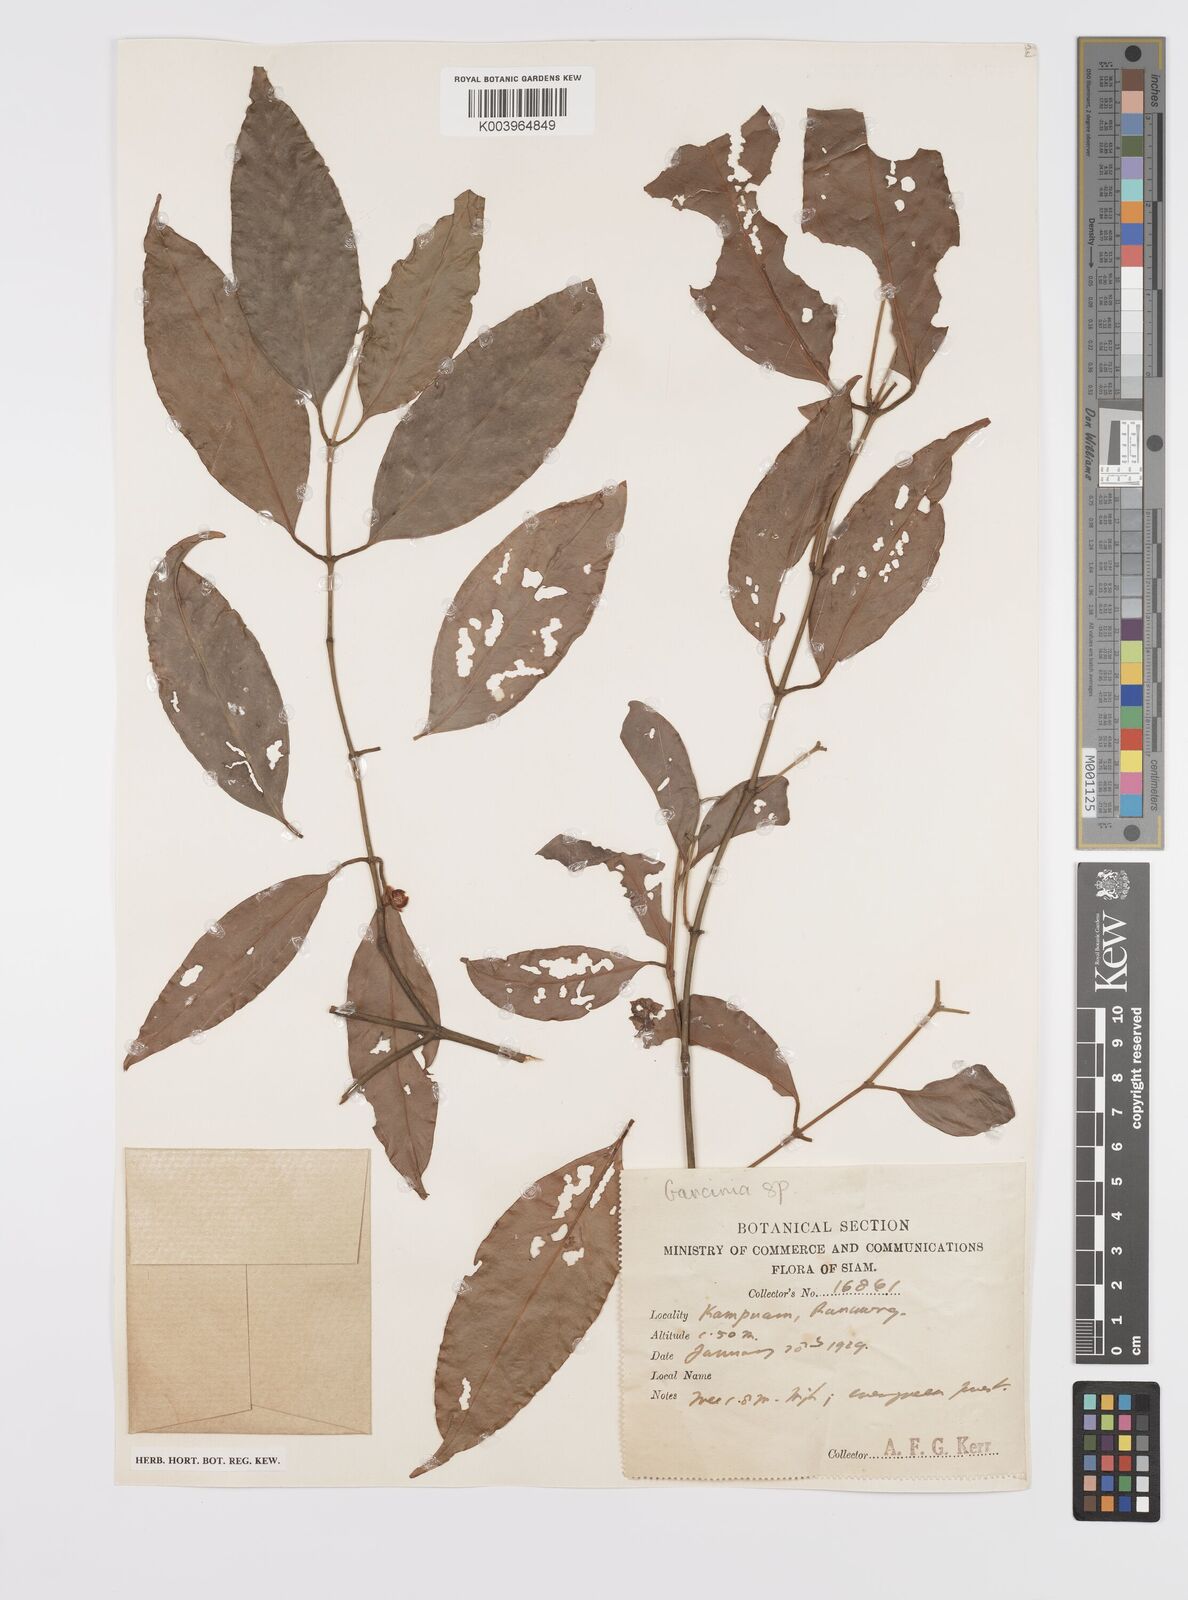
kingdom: Plantae
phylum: Tracheophyta
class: Magnoliopsida
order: Malpighiales
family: Clusiaceae
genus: Garcinia
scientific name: Garcinia
